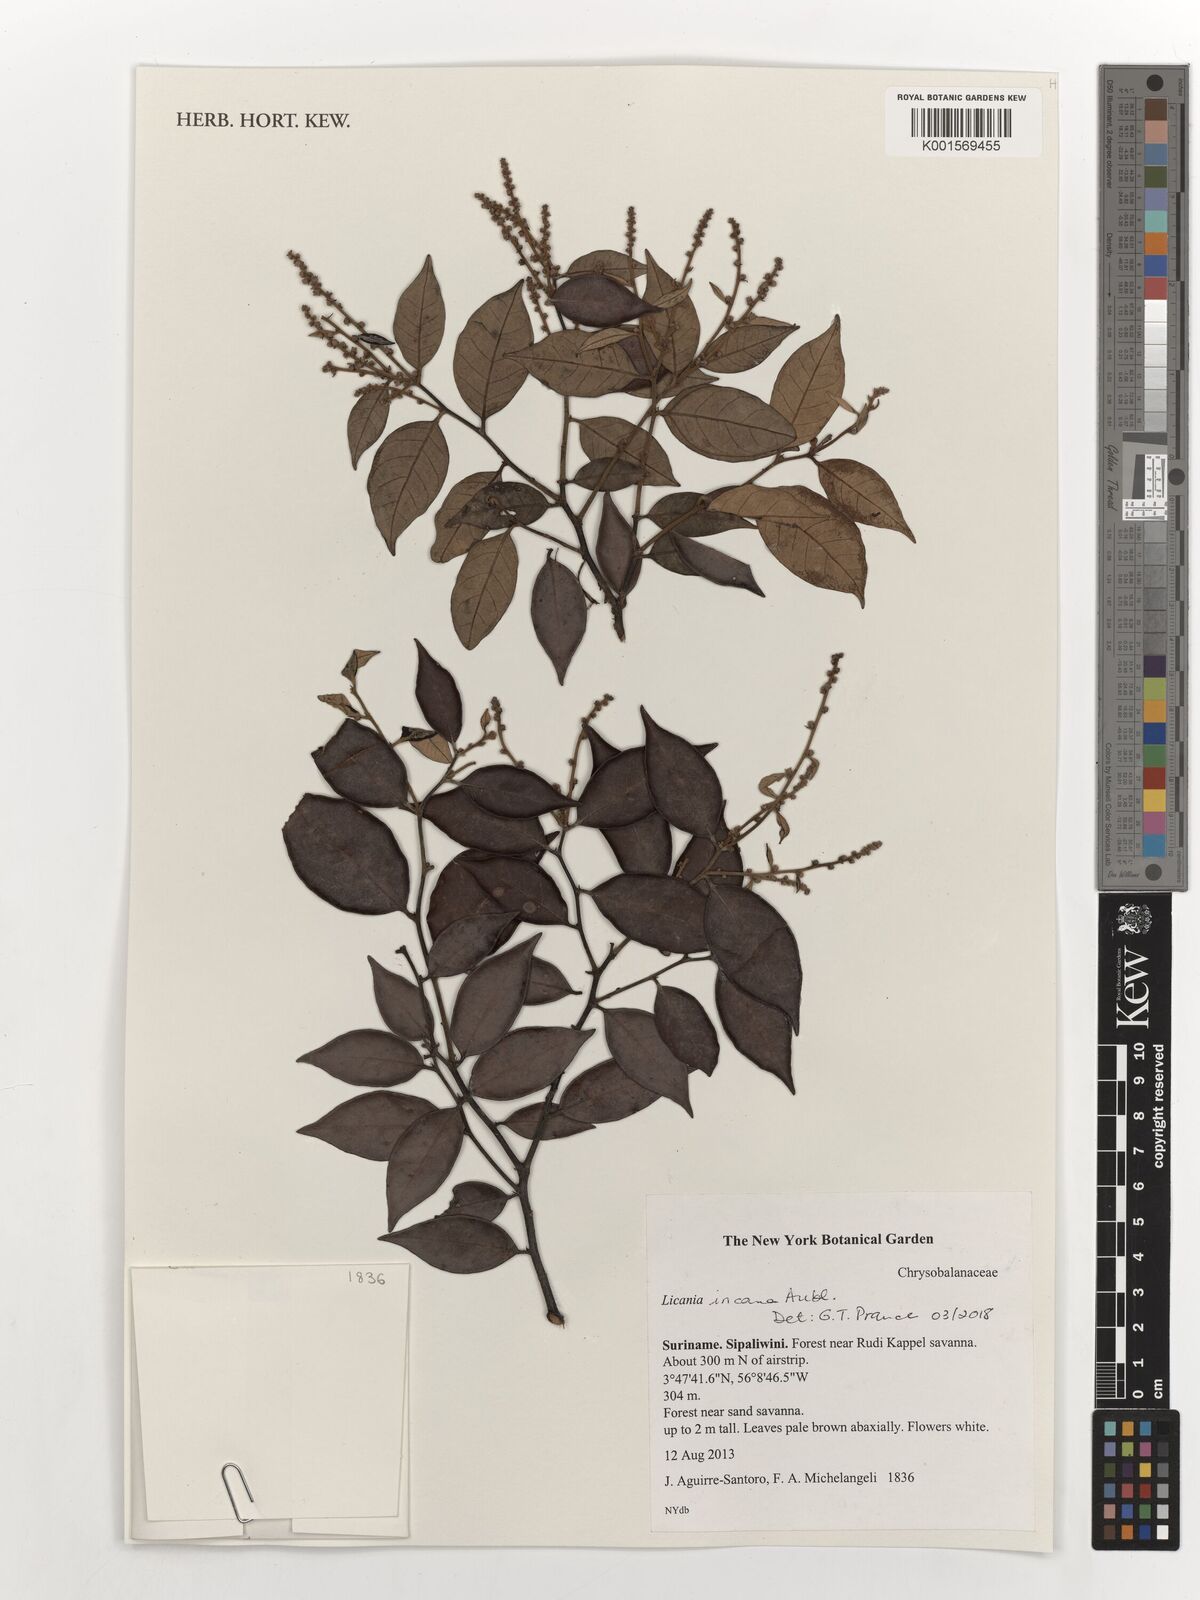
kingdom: Plantae
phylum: Tracheophyta
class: Magnoliopsida
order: Malpighiales
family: Chrysobalanaceae
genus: Licania
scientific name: Licania incana
